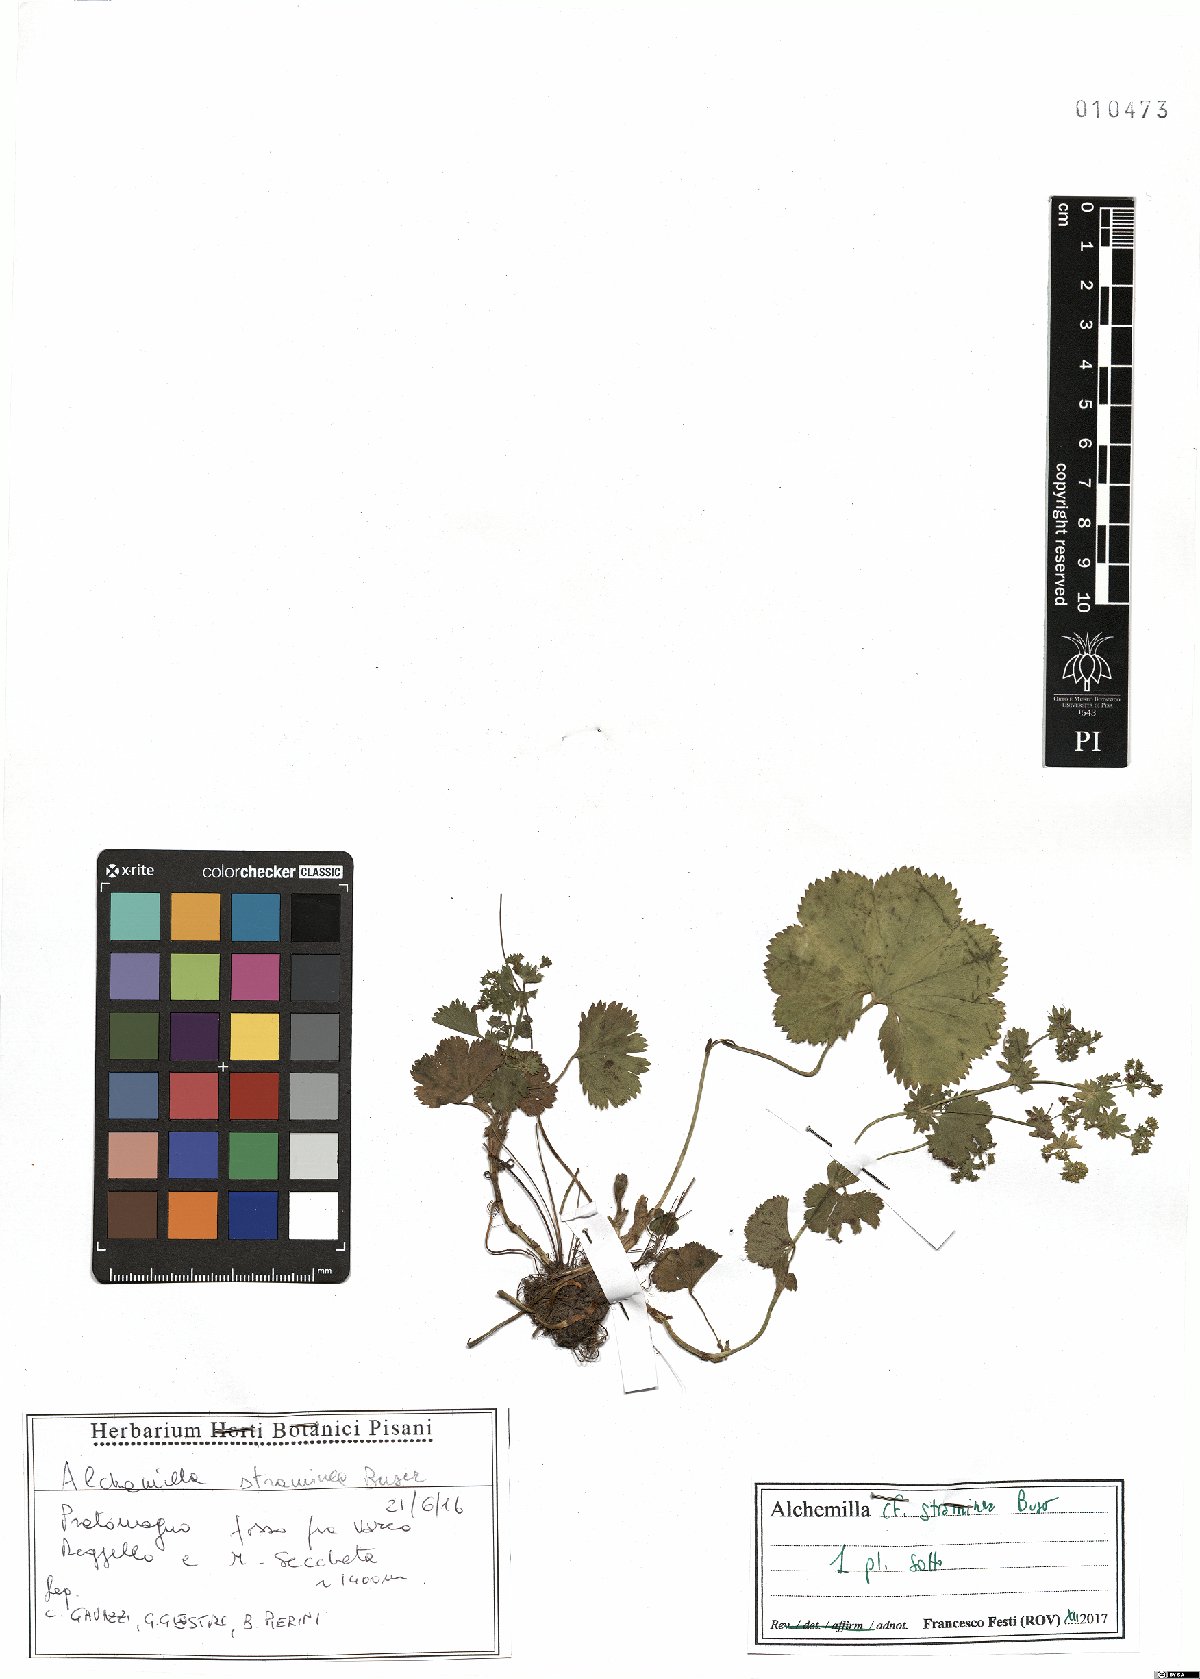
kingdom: Plantae
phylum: Tracheophyta
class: Magnoliopsida
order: Rosales
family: Rosaceae
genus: Alchemilla
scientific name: Alchemilla straminea
